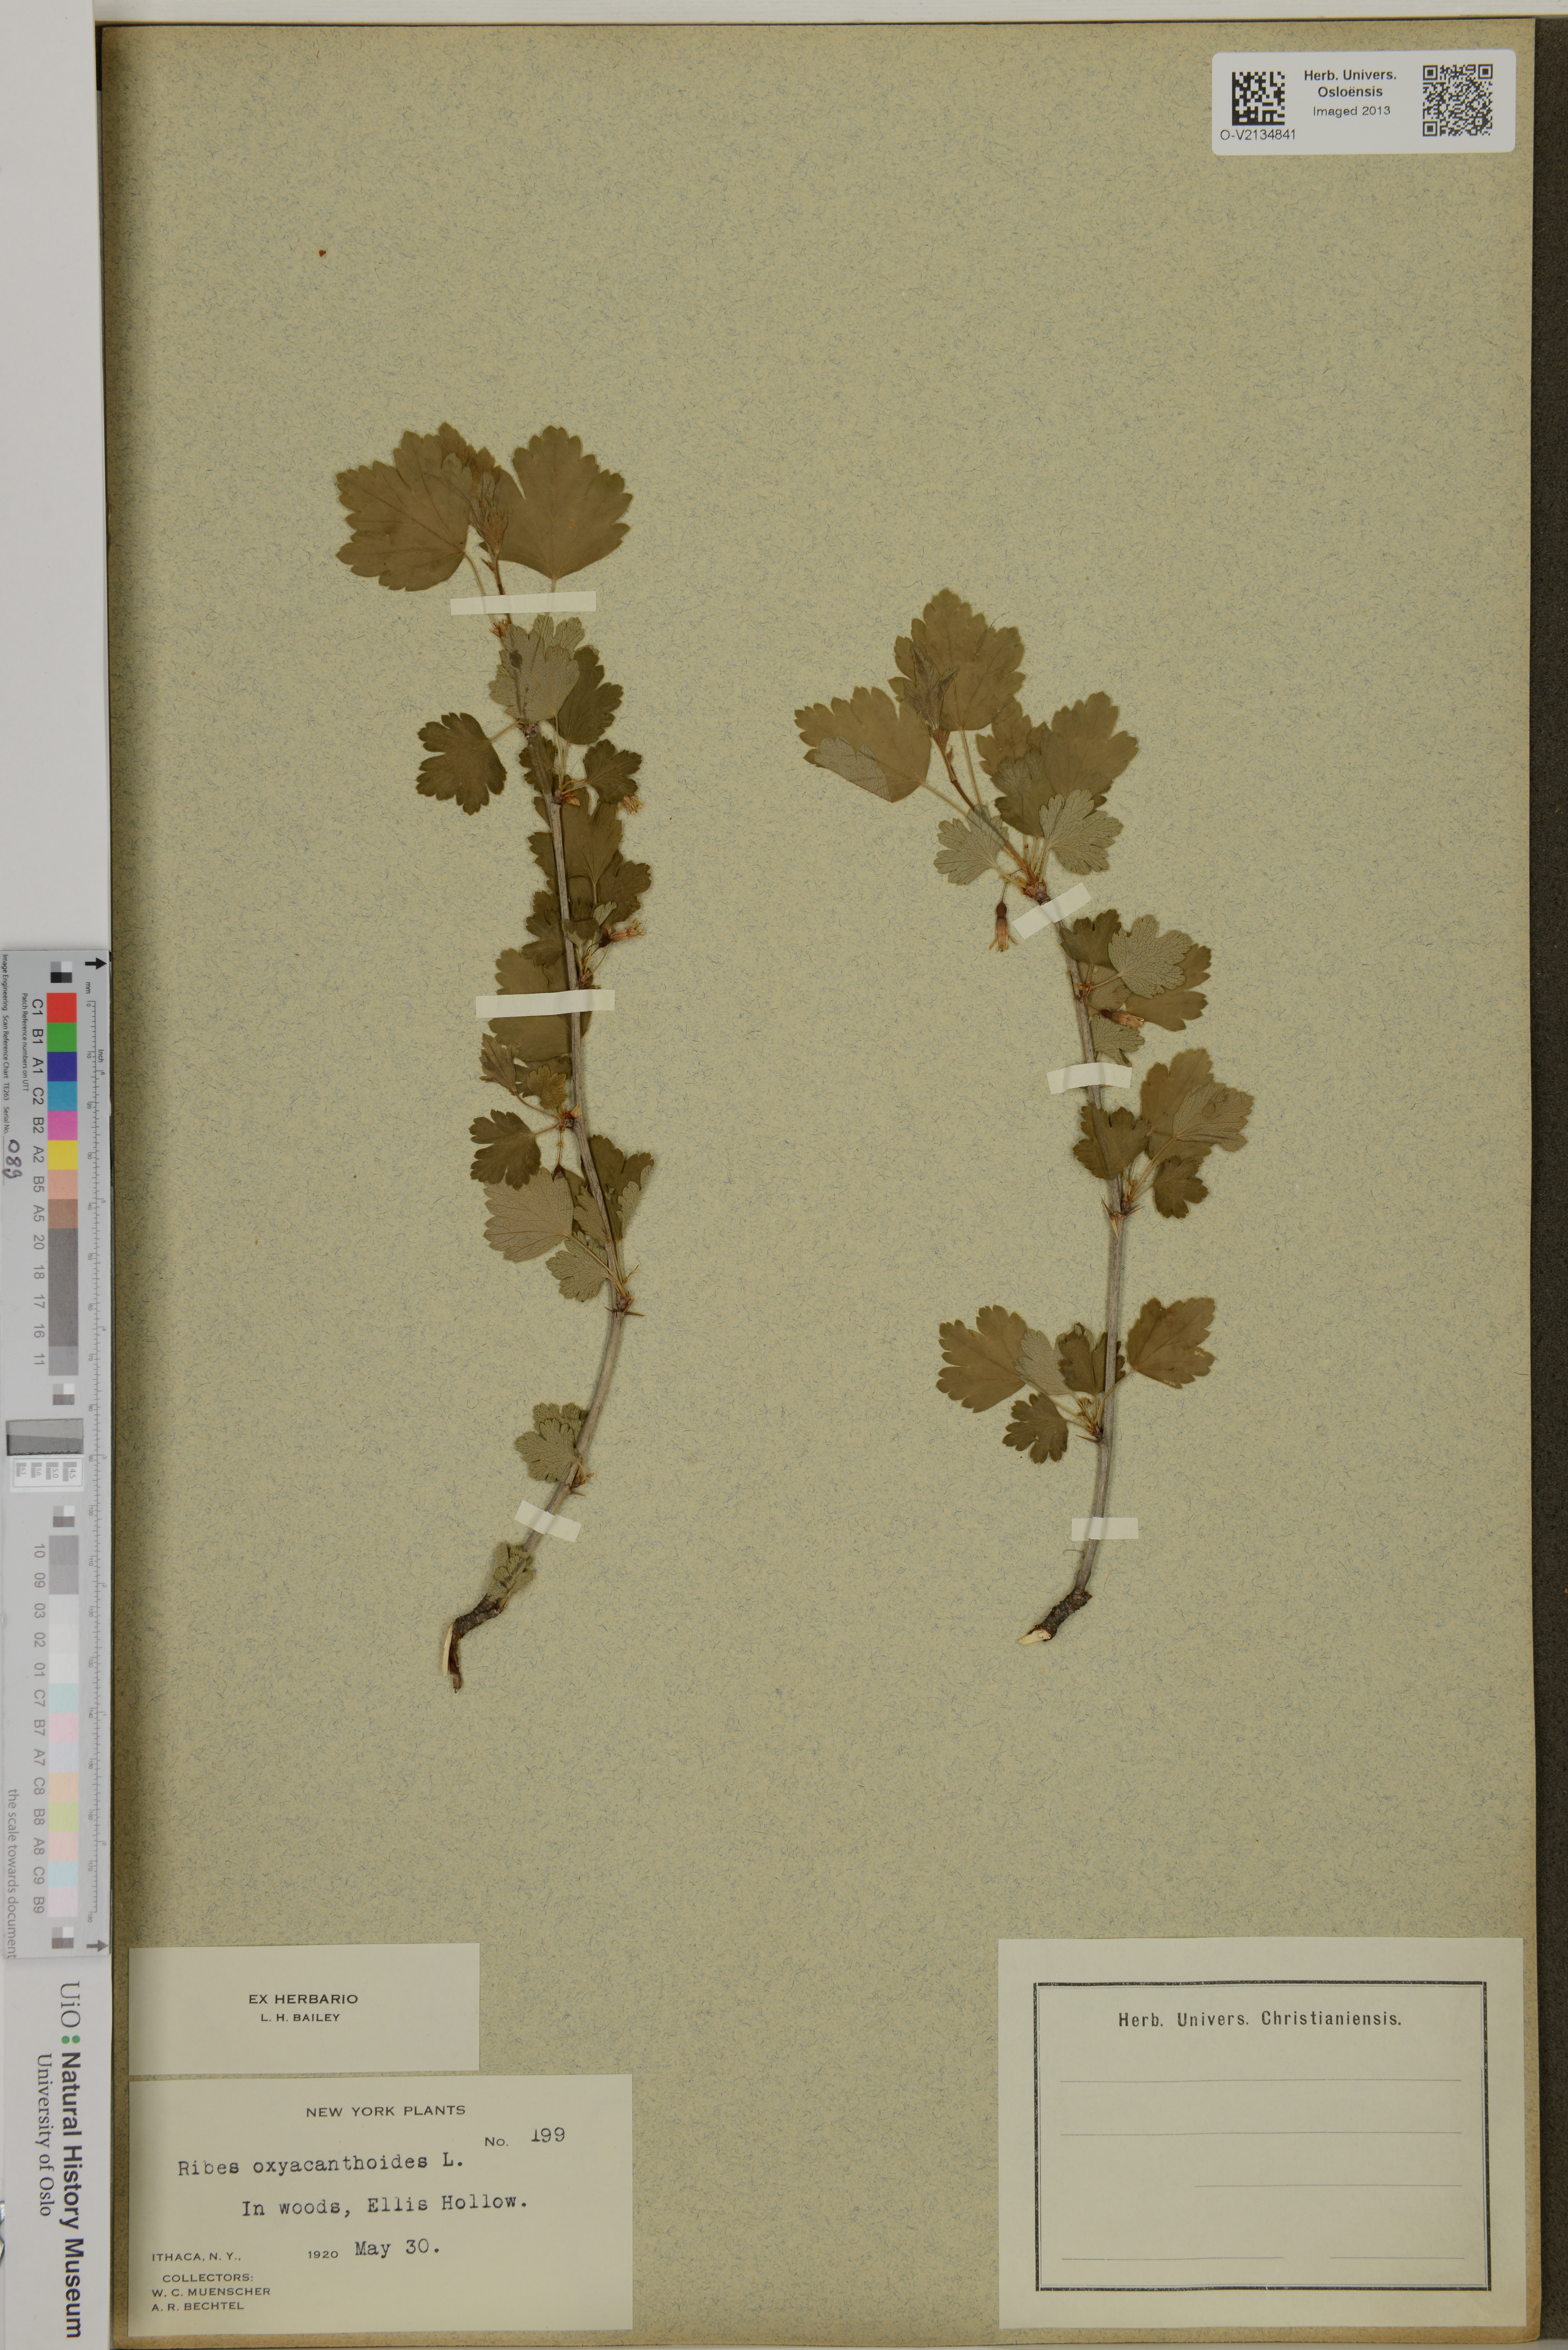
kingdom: Plantae
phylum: Tracheophyta
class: Magnoliopsida
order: Saxifragales
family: Grossulariaceae
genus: Ribes
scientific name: Ribes oxyacanthoides
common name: Northern gooseberry
